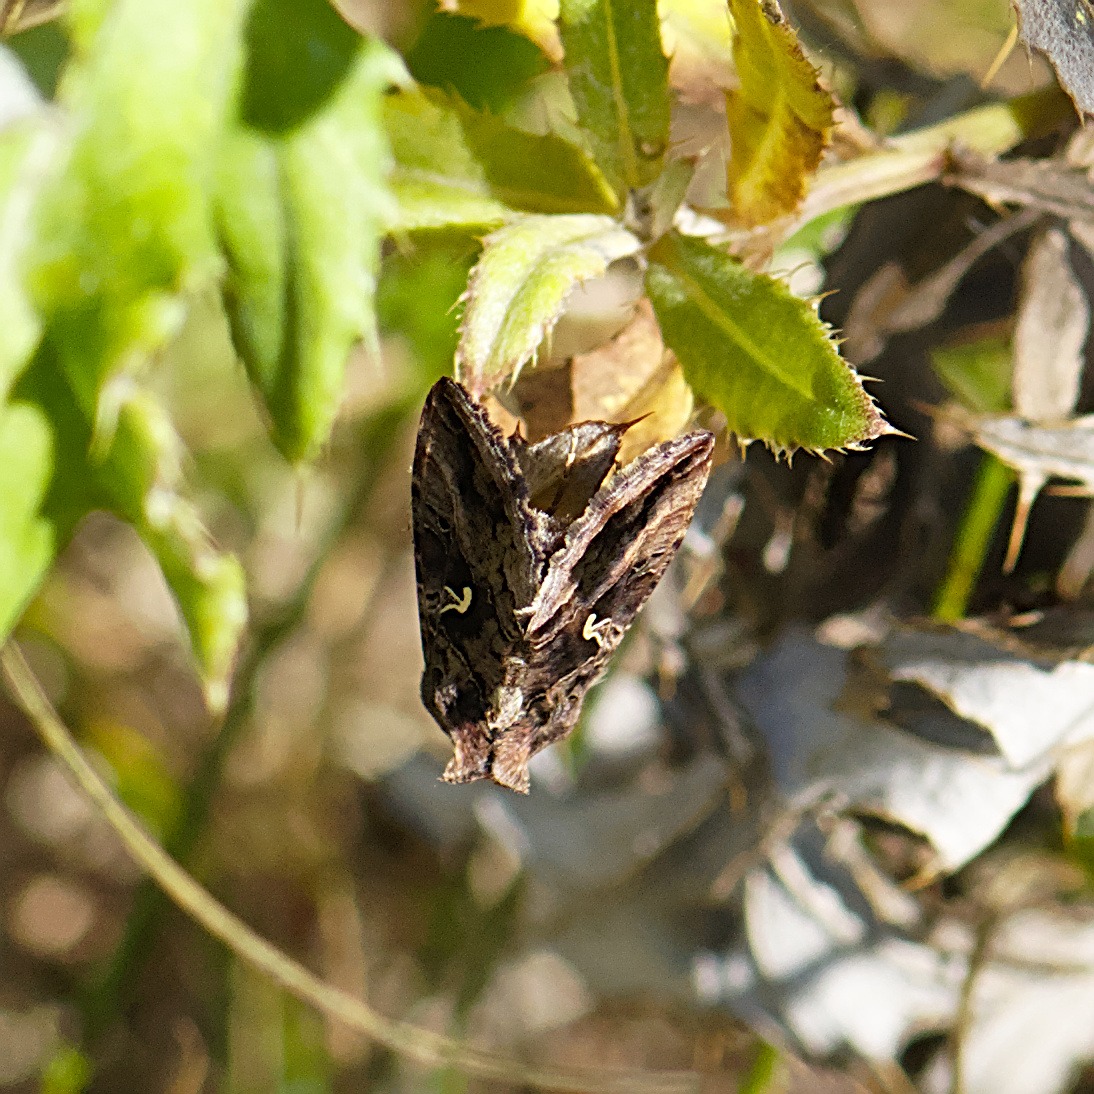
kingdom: Animalia
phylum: Arthropoda
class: Insecta
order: Lepidoptera
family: Noctuidae
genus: Autographa
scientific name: Autographa gamma
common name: Gammaugle
